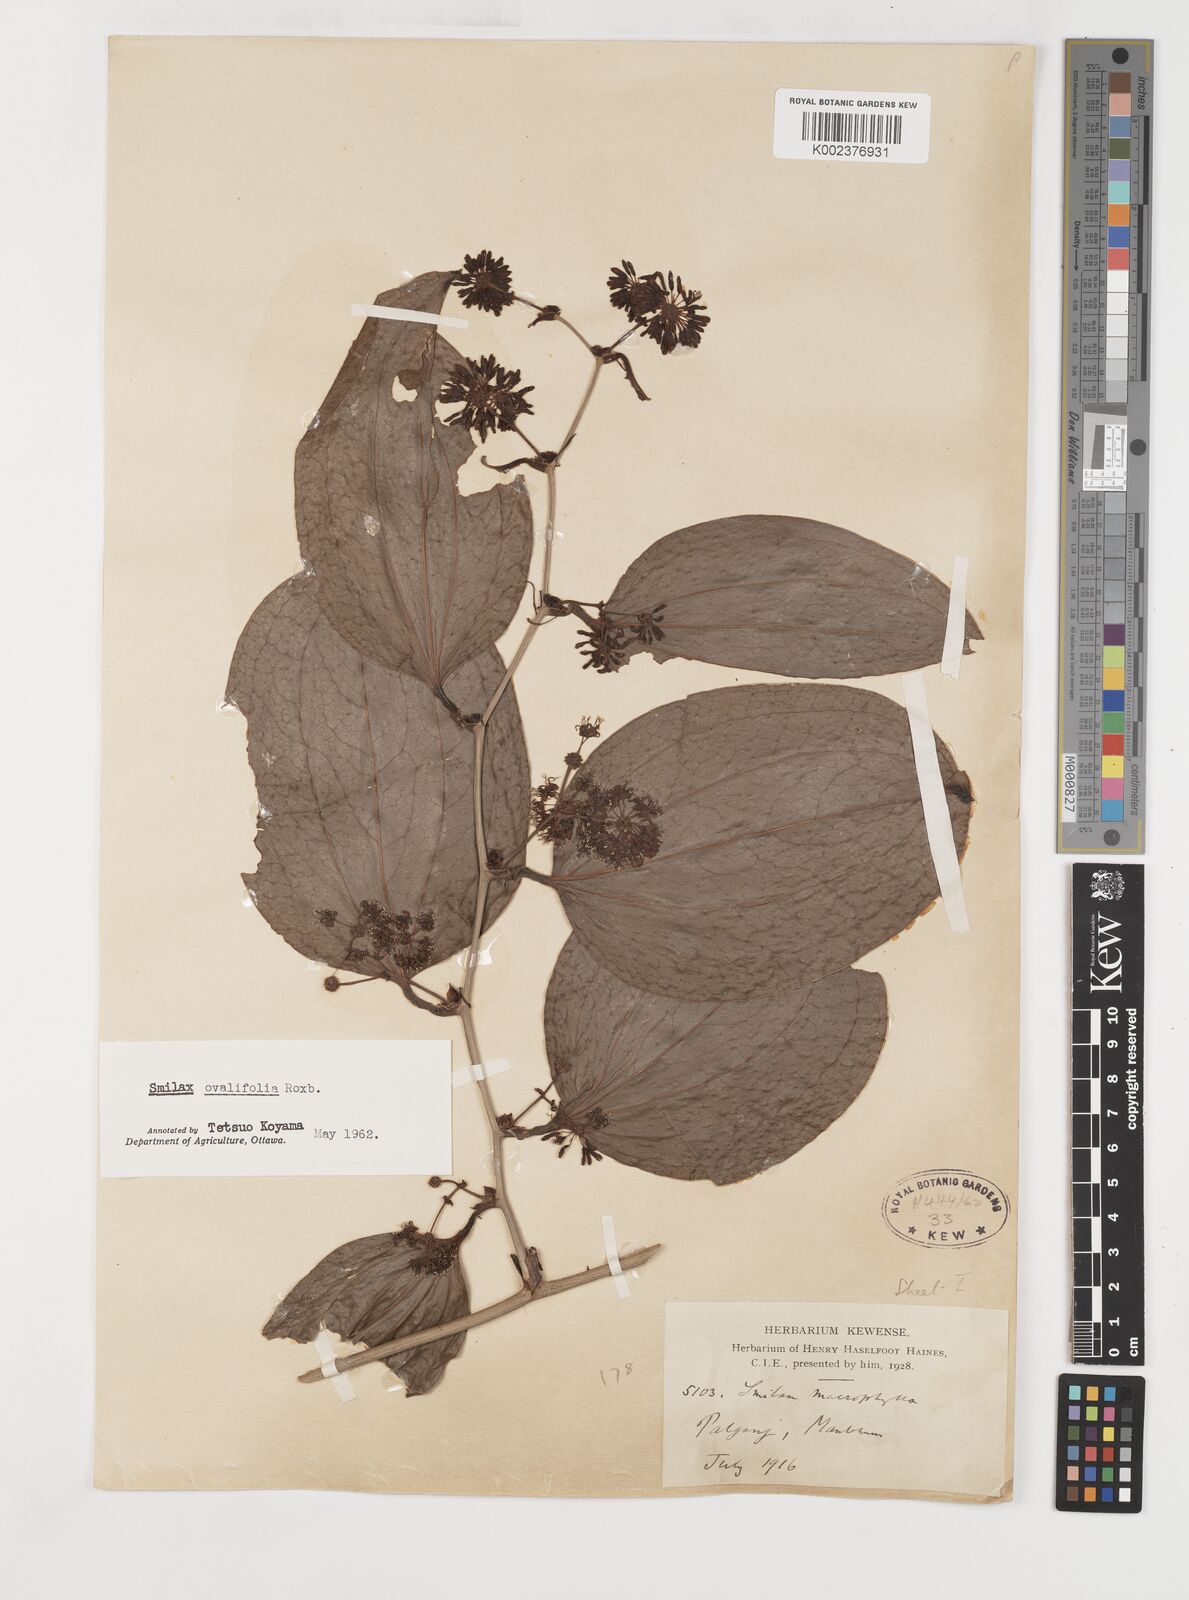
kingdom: Plantae
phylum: Tracheophyta
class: Liliopsida
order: Liliales
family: Smilacaceae
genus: Smilax
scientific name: Smilax ovalifolia
